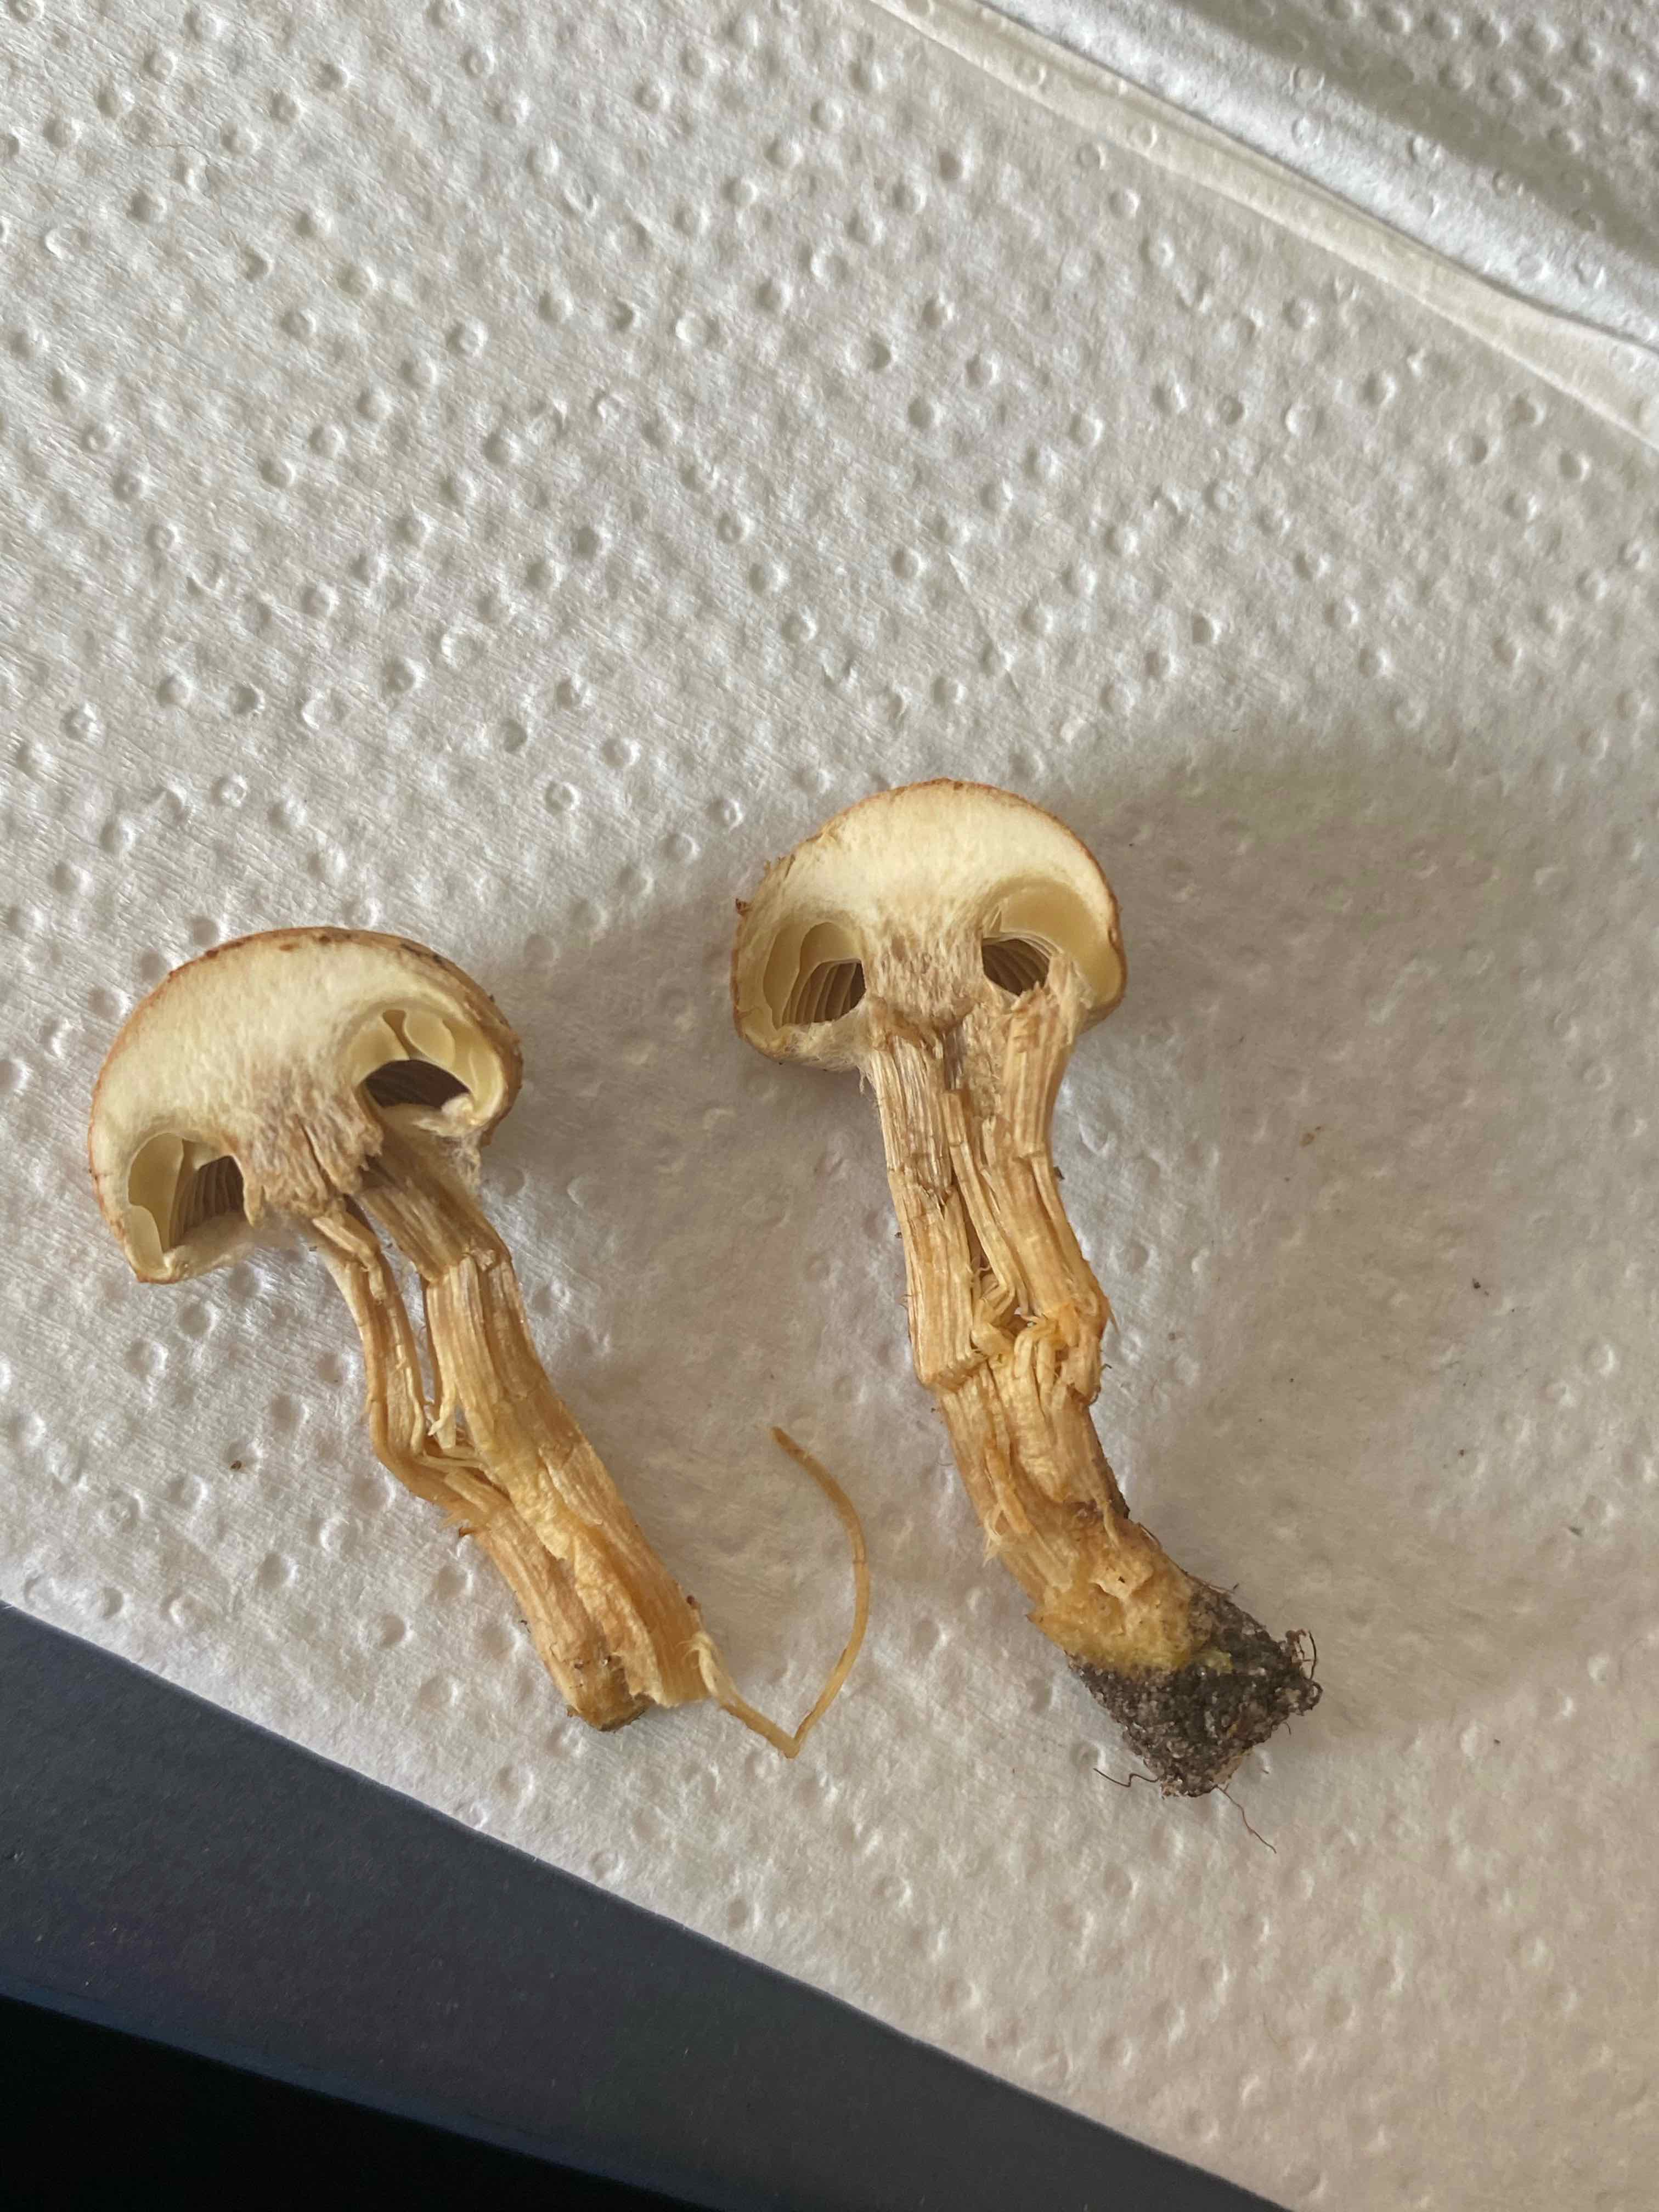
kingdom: Fungi
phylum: Basidiomycota
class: Agaricomycetes
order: Agaricales
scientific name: Agaricales
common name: champignonordenen
